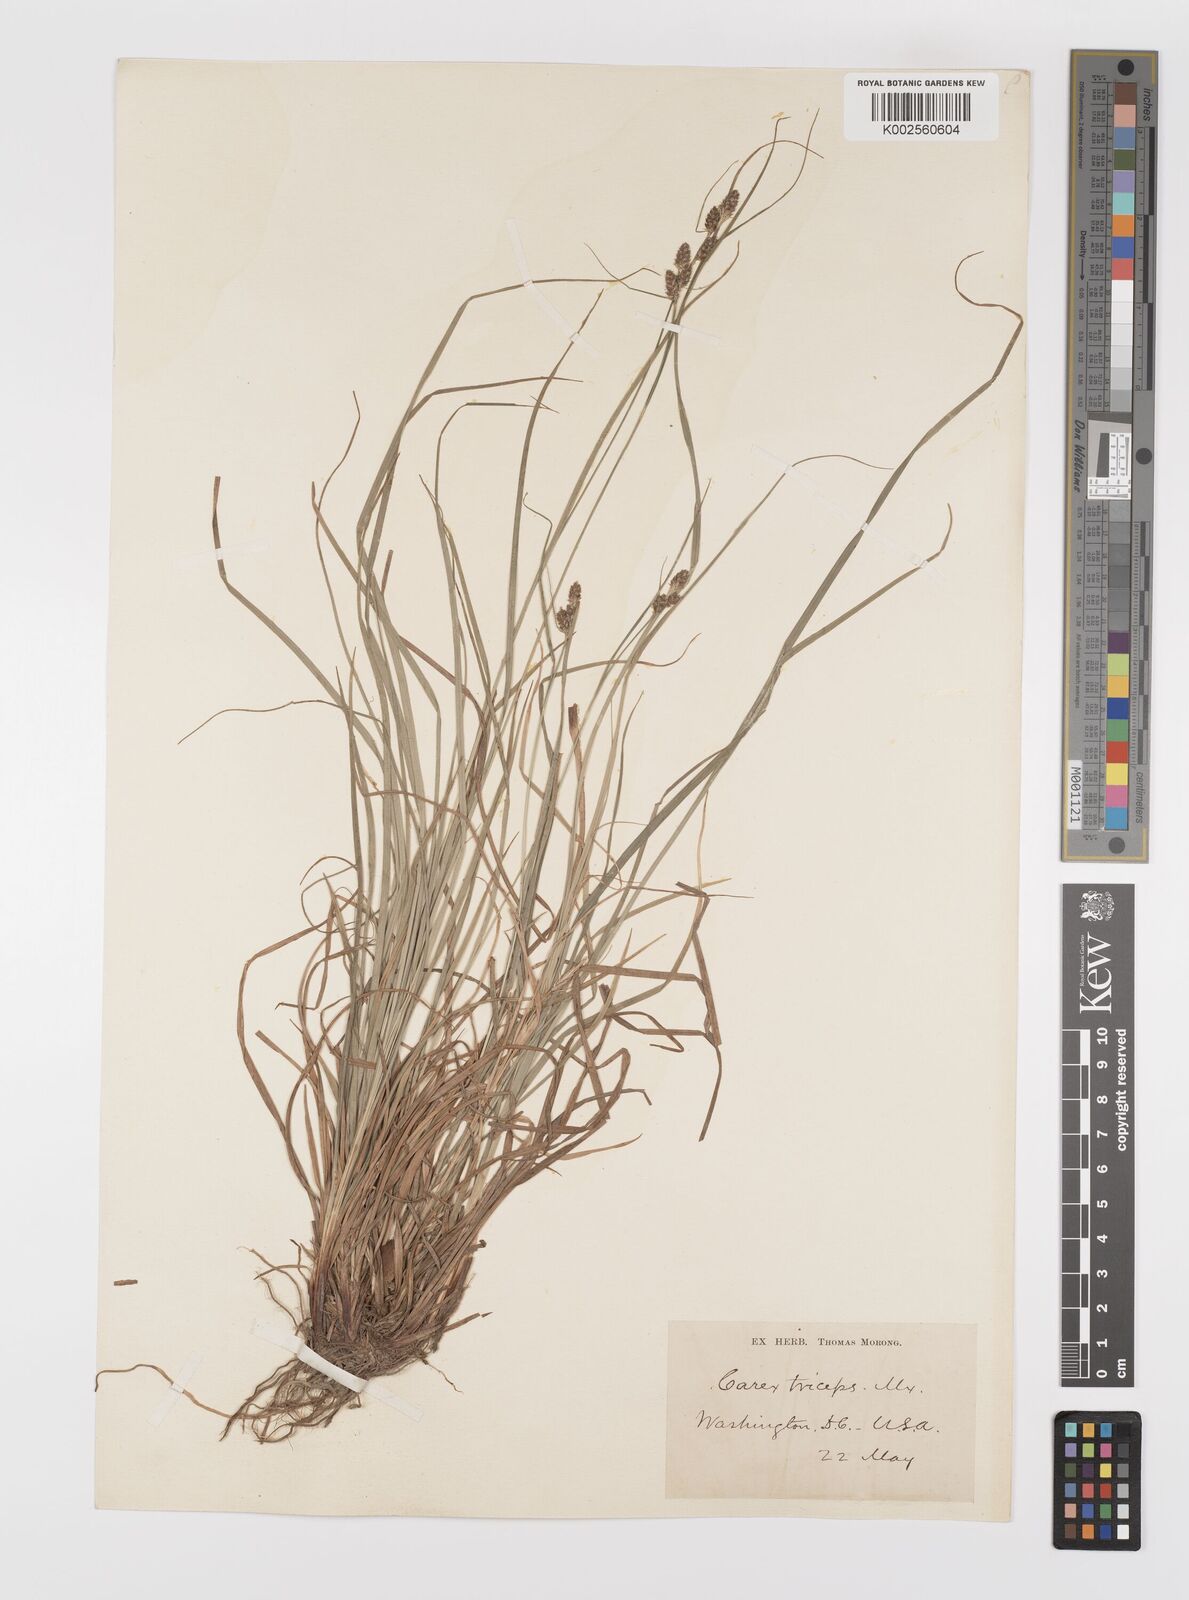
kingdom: Plantae
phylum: Tracheophyta
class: Liliopsida
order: Poales
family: Cyperaceae
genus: Carex
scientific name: Carex complanata
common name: Hirsute sedge
